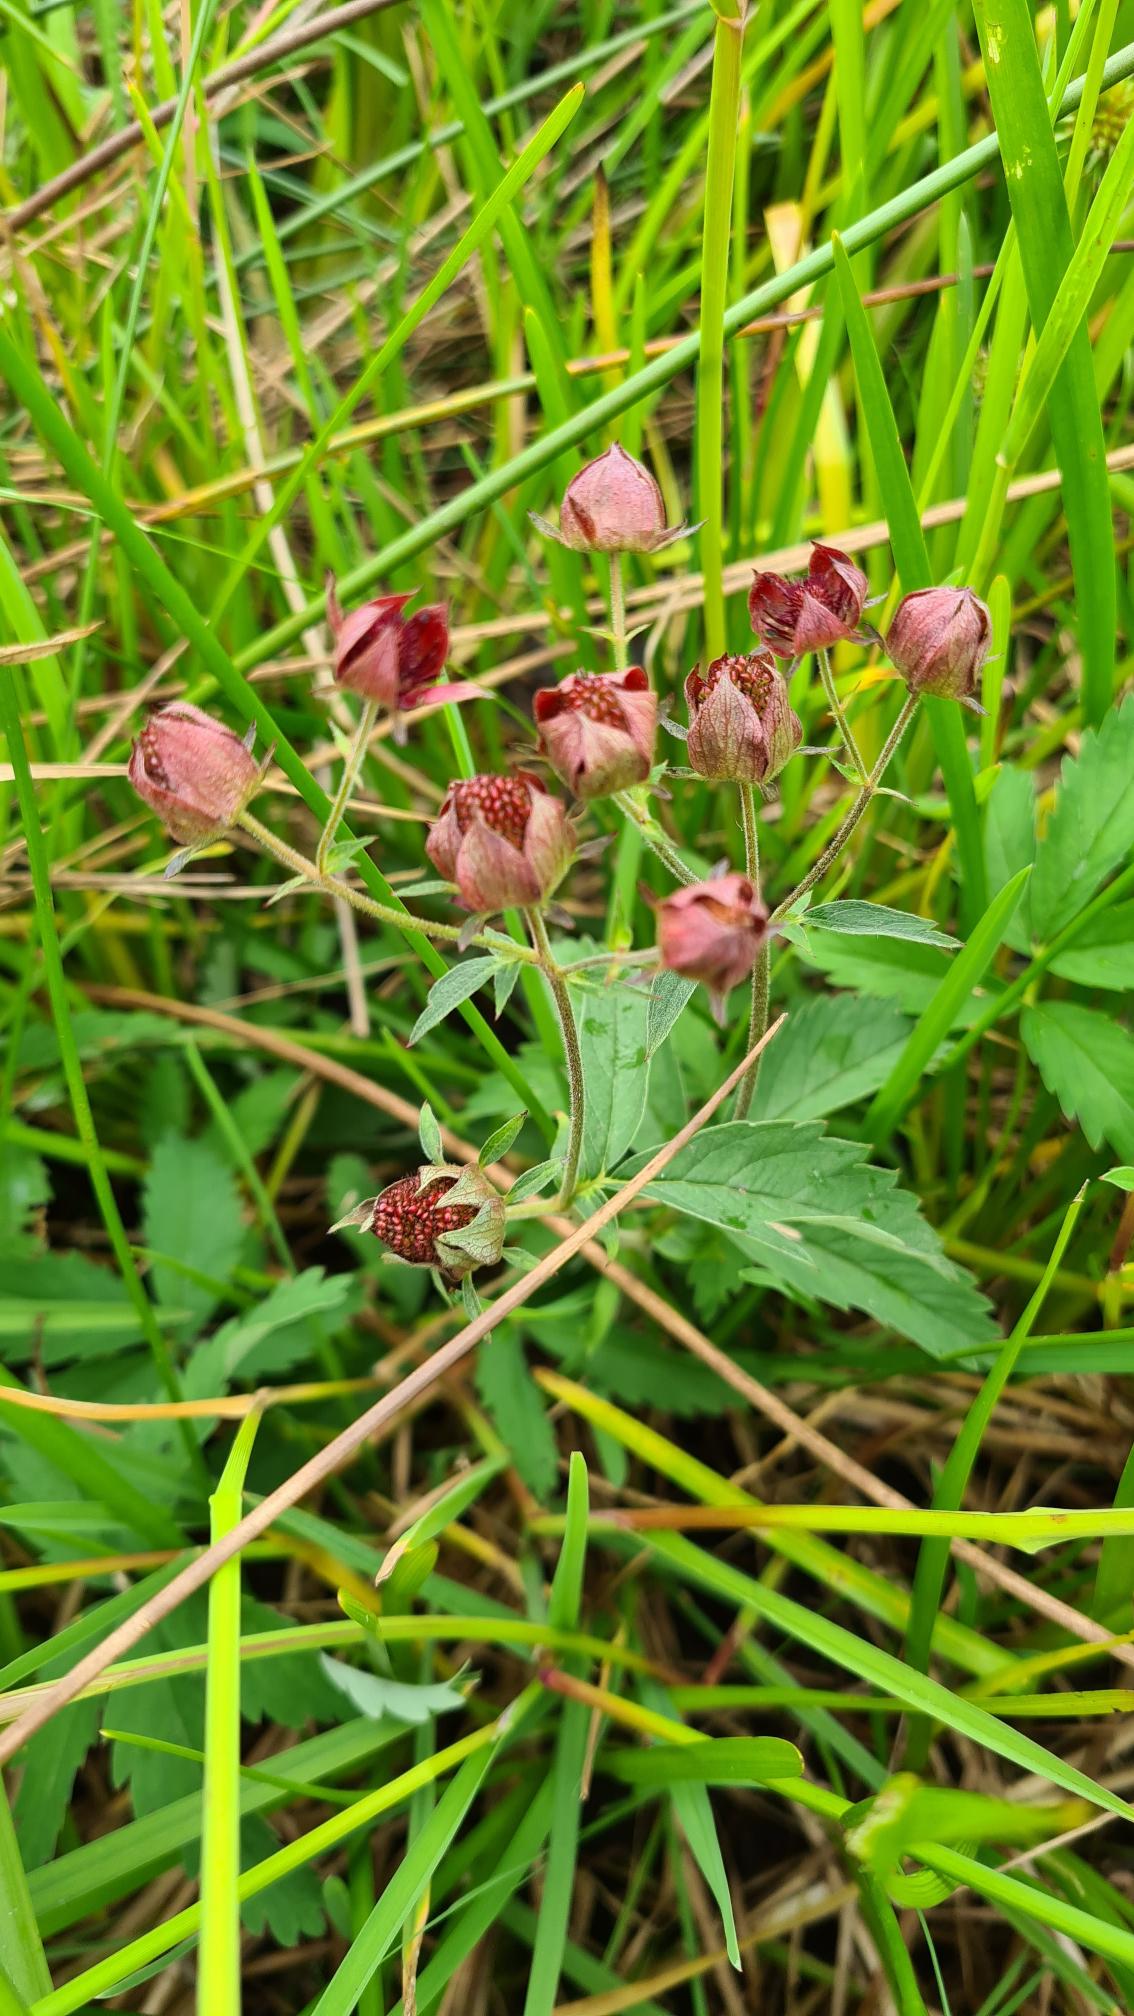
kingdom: Plantae
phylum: Tracheophyta
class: Magnoliopsida
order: Rosales
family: Rosaceae
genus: Comarum
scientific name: Comarum palustre
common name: Kragefod
